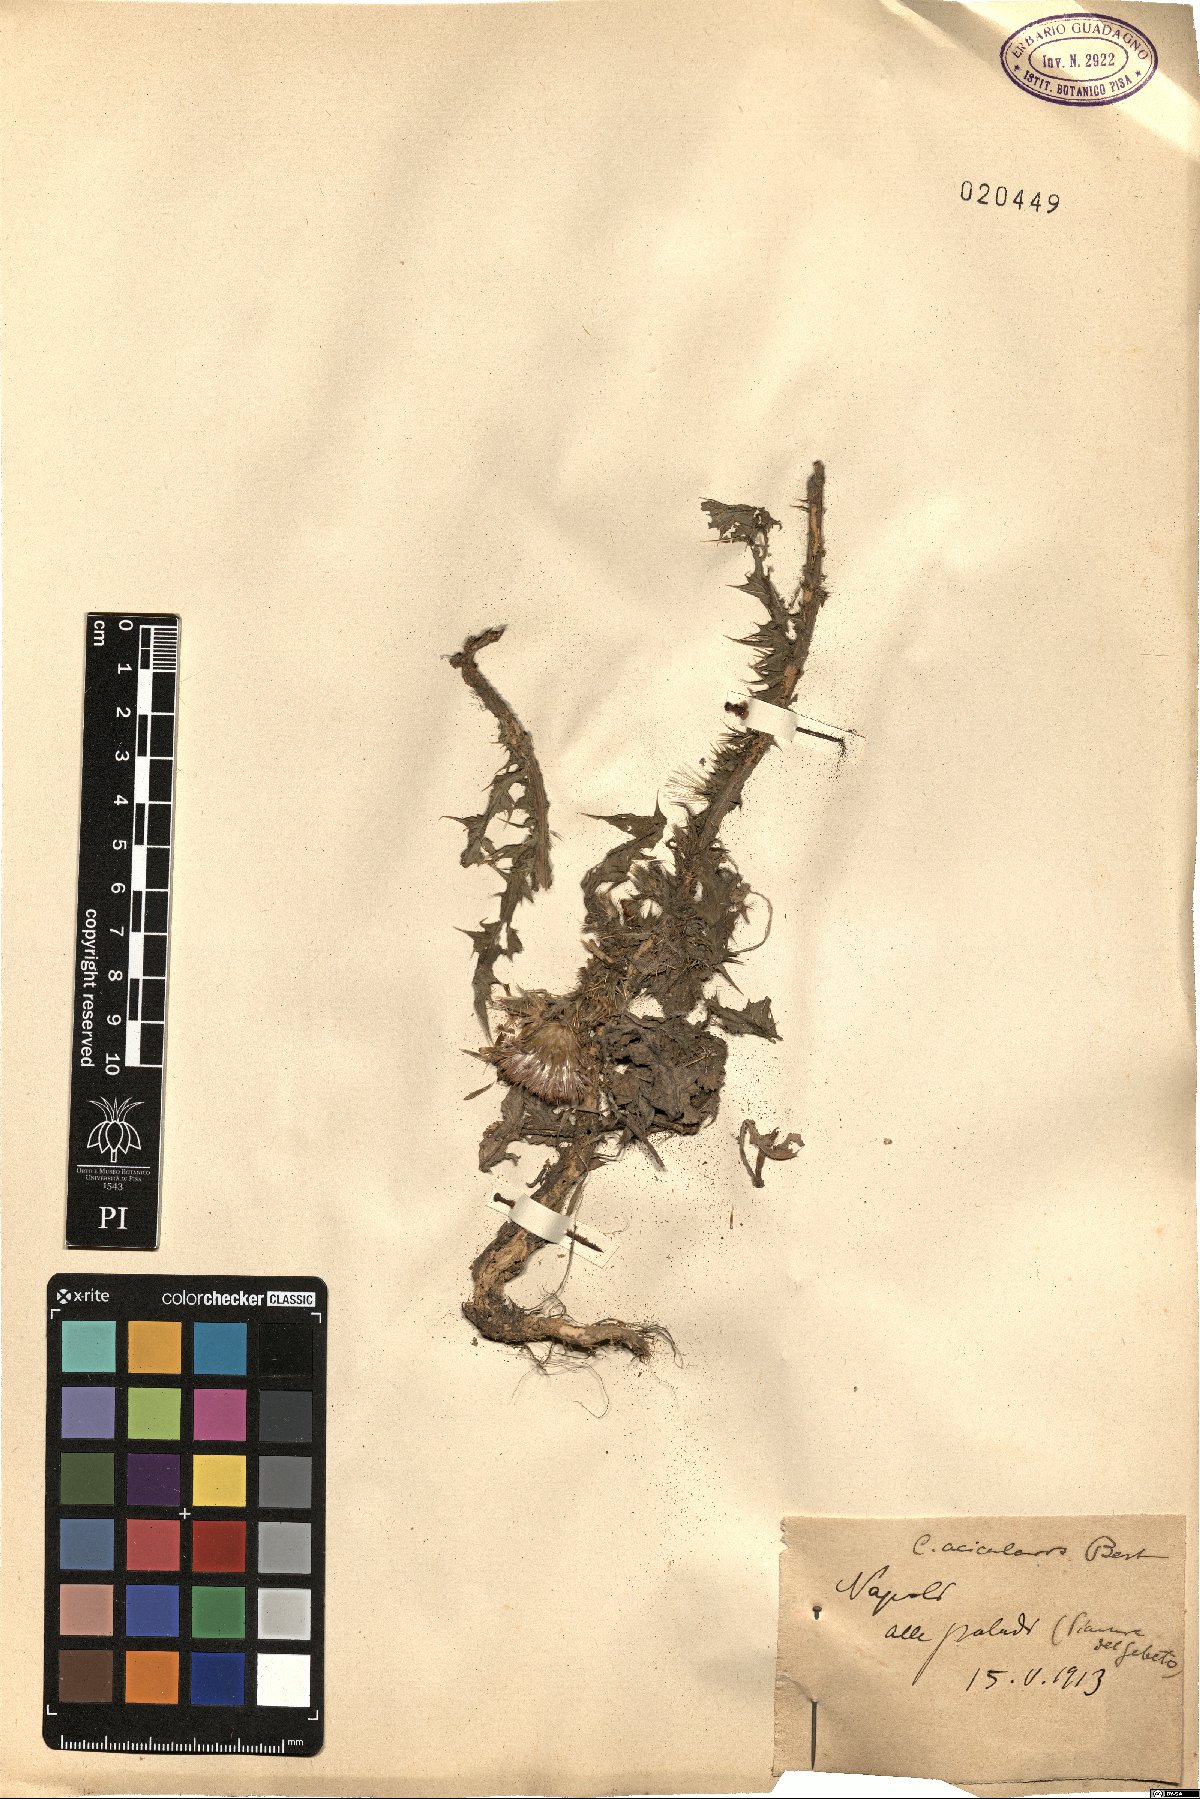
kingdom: Plantae
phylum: Tracheophyta
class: Magnoliopsida
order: Asterales
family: Asteraceae
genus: Carduus
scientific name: Carduus acicularis
